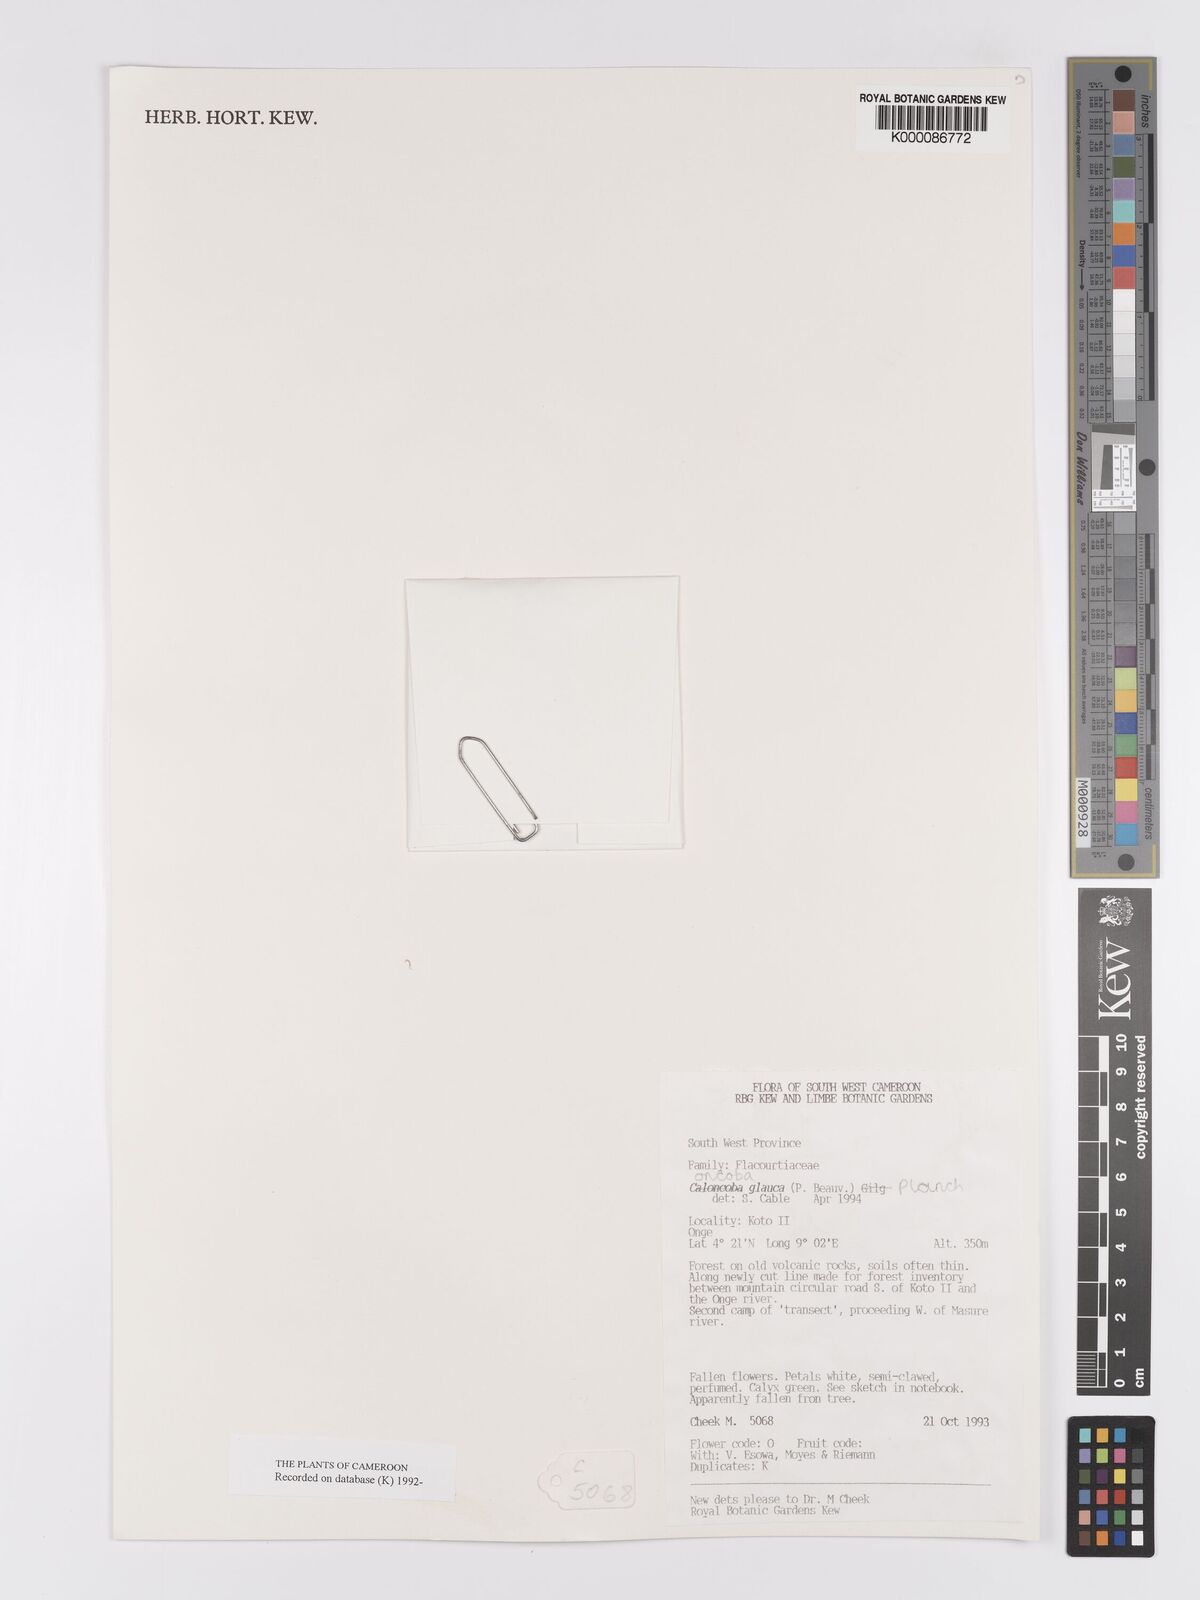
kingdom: Plantae
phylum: Tracheophyta
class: Magnoliopsida
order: Malpighiales
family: Achariaceae
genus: Caloncoba
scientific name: Caloncoba glauca
